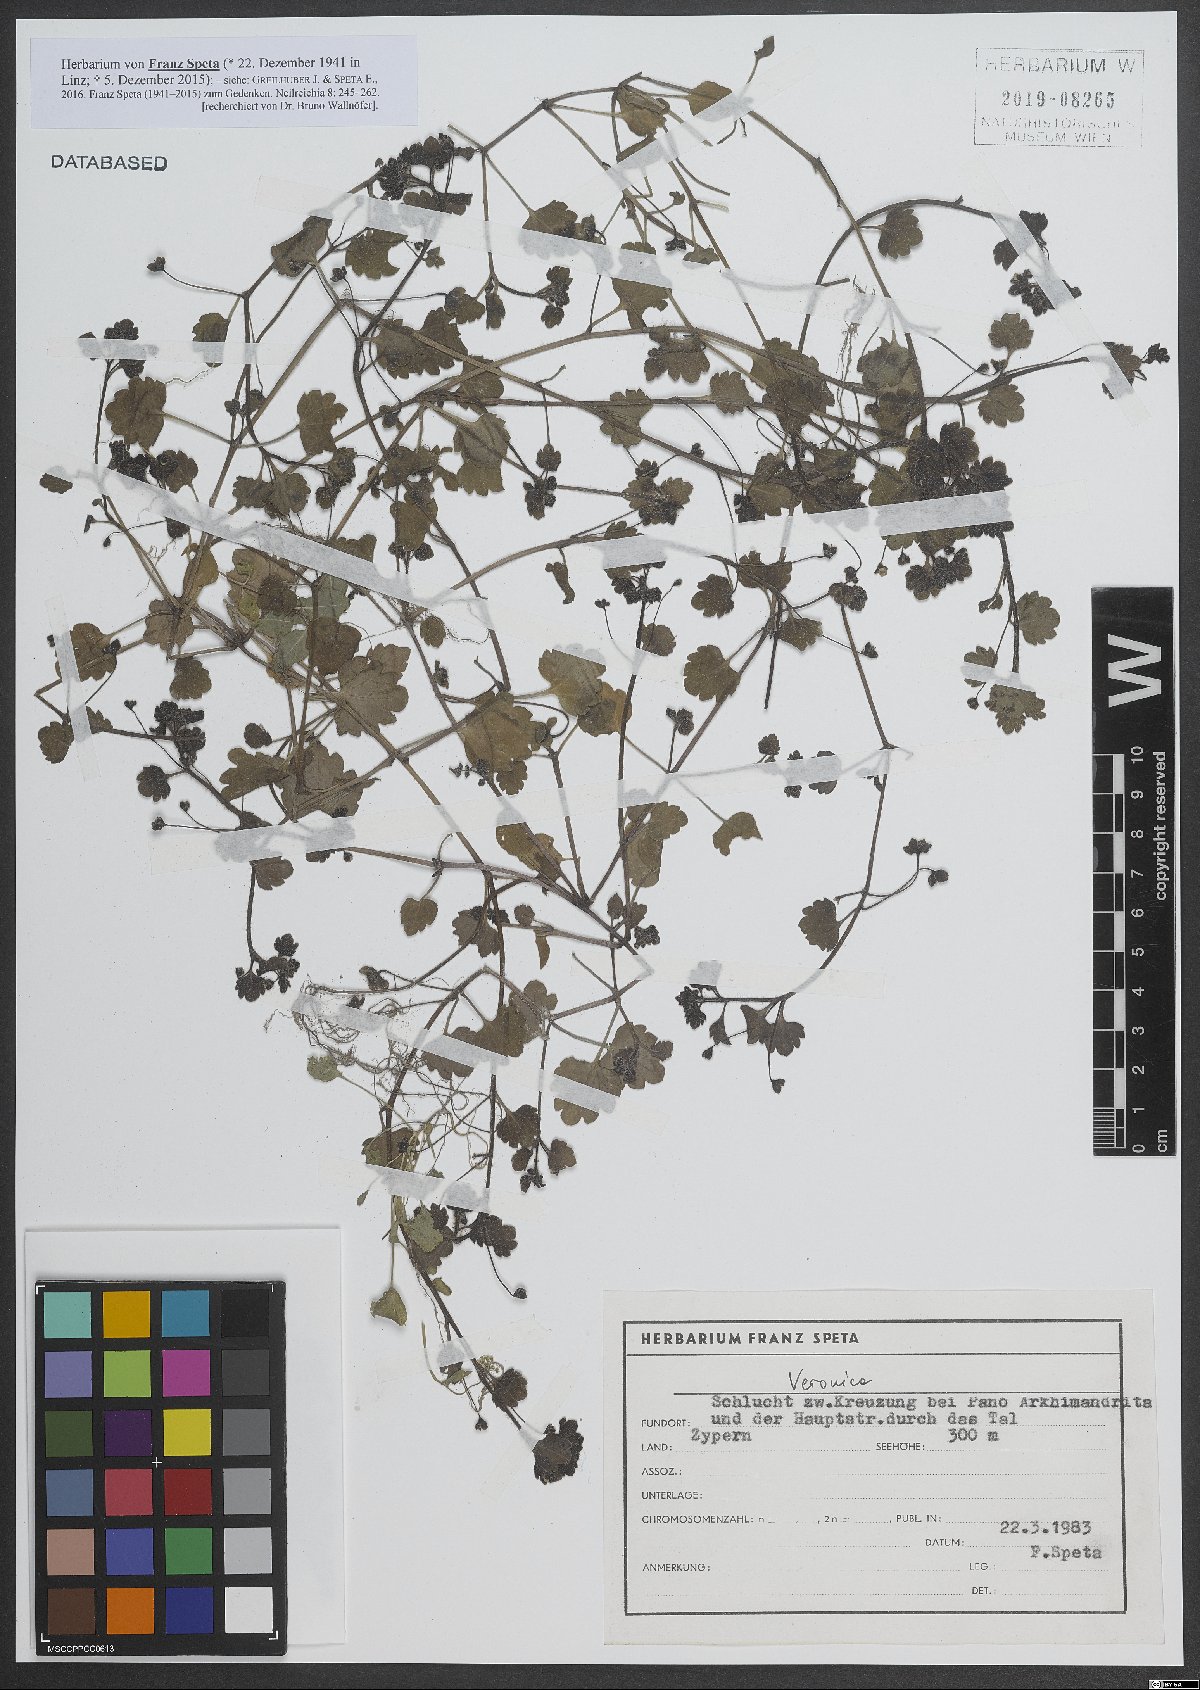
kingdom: Plantae
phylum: Tracheophyta
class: Magnoliopsida
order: Lamiales
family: Plantaginaceae
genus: Veronica
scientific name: Veronica
